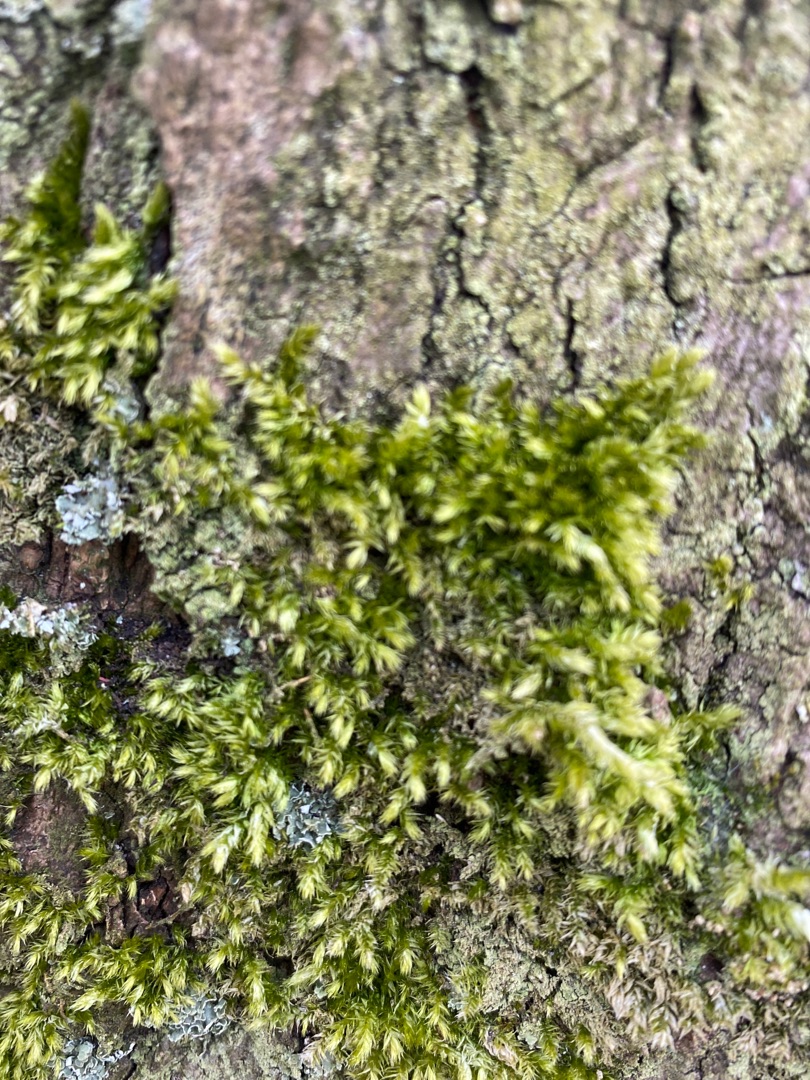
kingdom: Plantae
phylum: Bryophyta
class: Bryopsida
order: Hypnales
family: Brachytheciaceae
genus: Brachythecium
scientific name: Brachythecium rutabulum
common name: Almindelig kortkapsel
